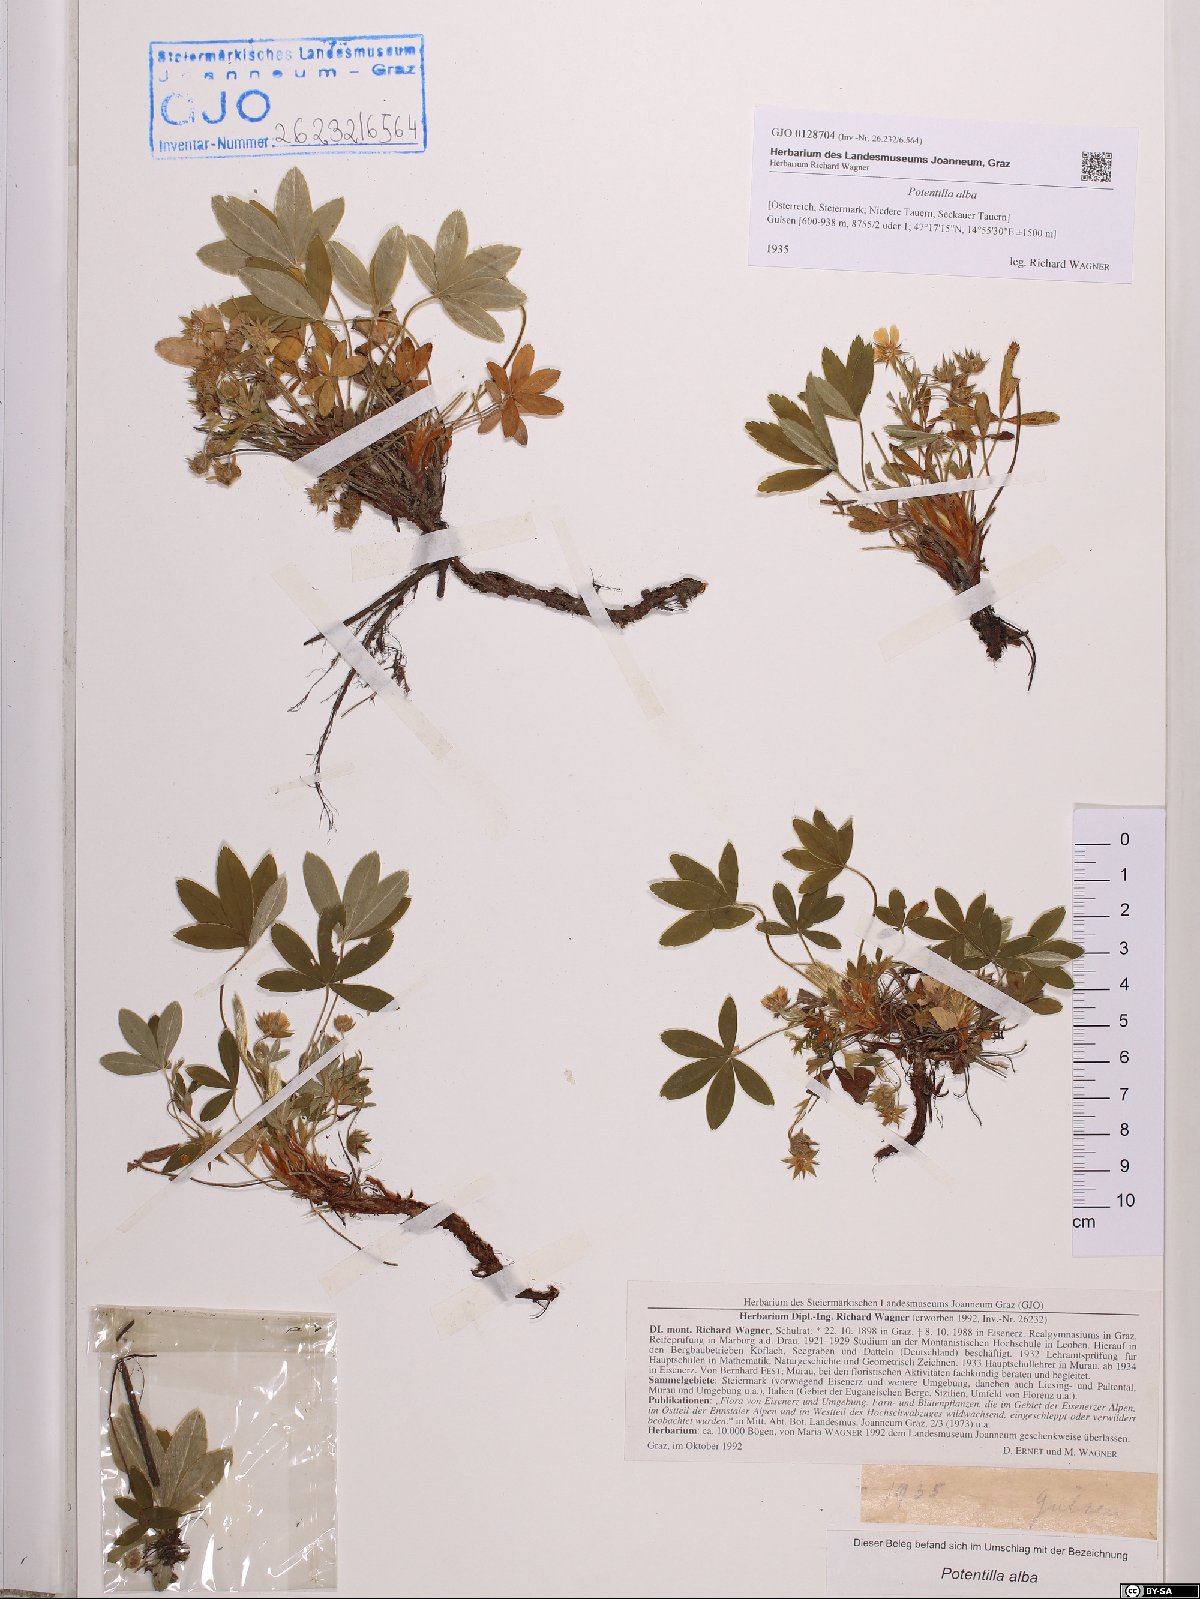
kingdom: Plantae
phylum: Tracheophyta
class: Magnoliopsida
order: Rosales
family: Rosaceae
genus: Potentilla
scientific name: Potentilla alba
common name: White cinquefoil
